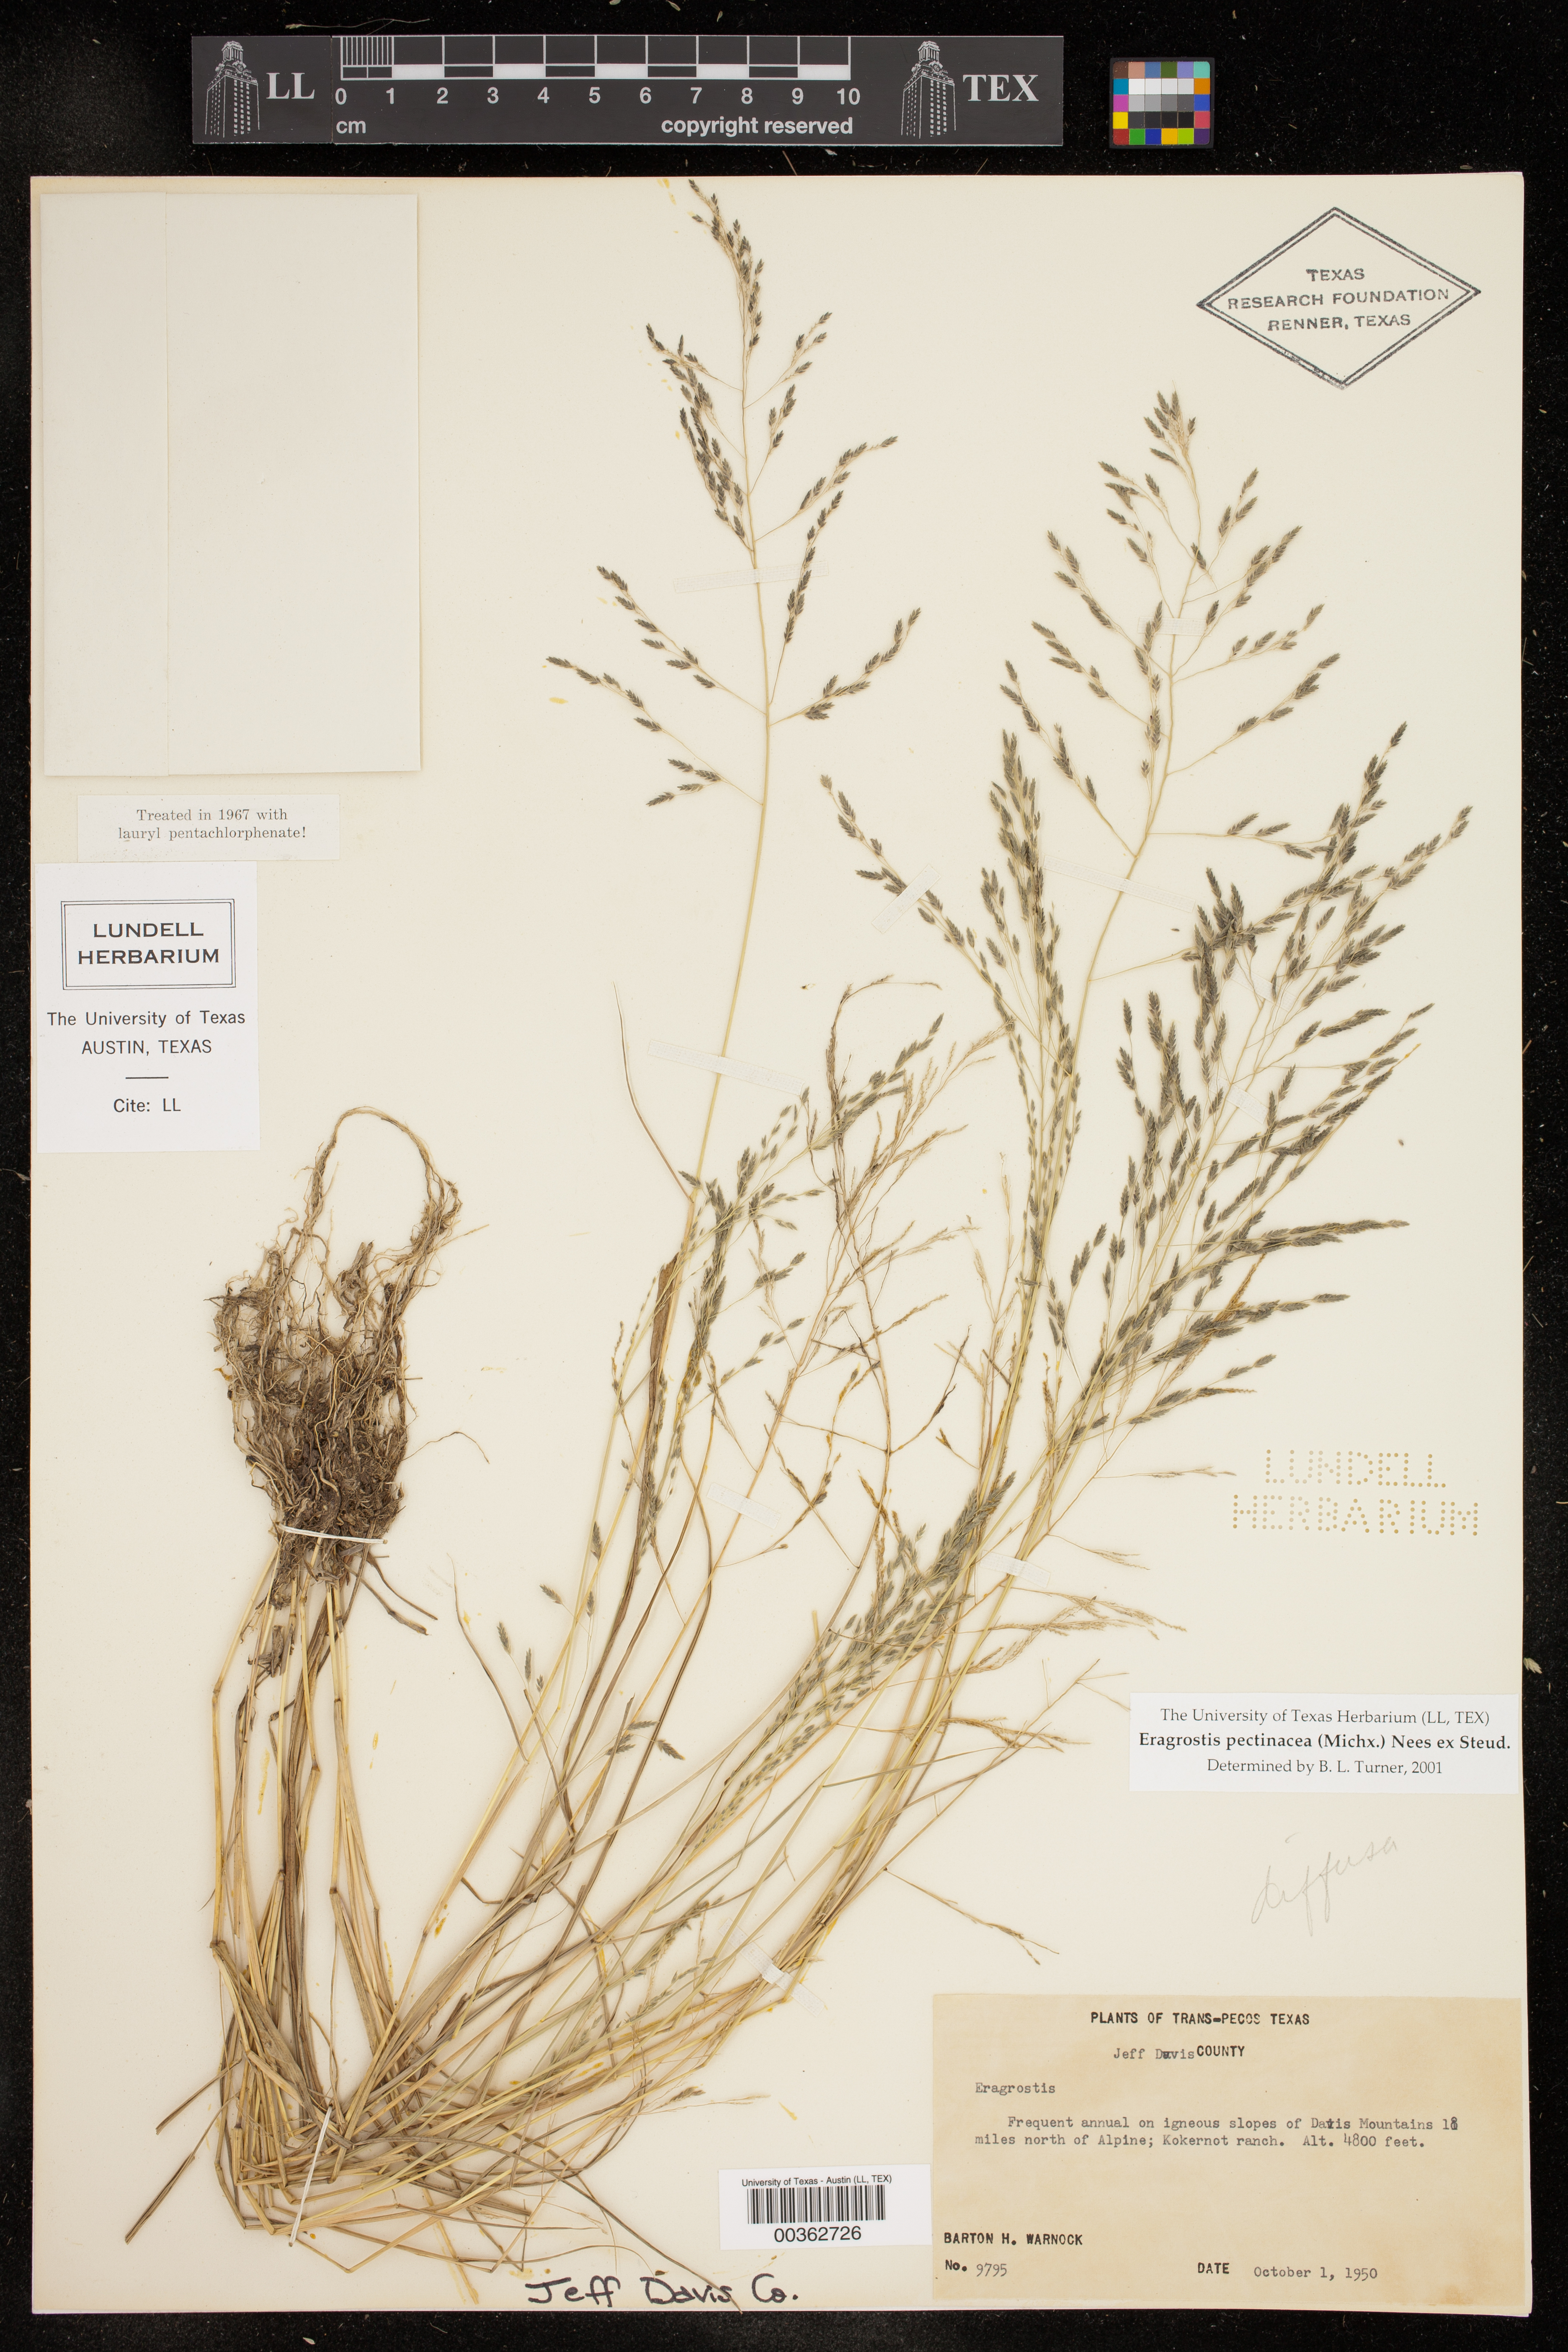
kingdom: Plantae
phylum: Tracheophyta
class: Liliopsida
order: Poales
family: Poaceae
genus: Eragrostis
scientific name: Eragrostis pectinacea
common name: Tufted lovegrass
